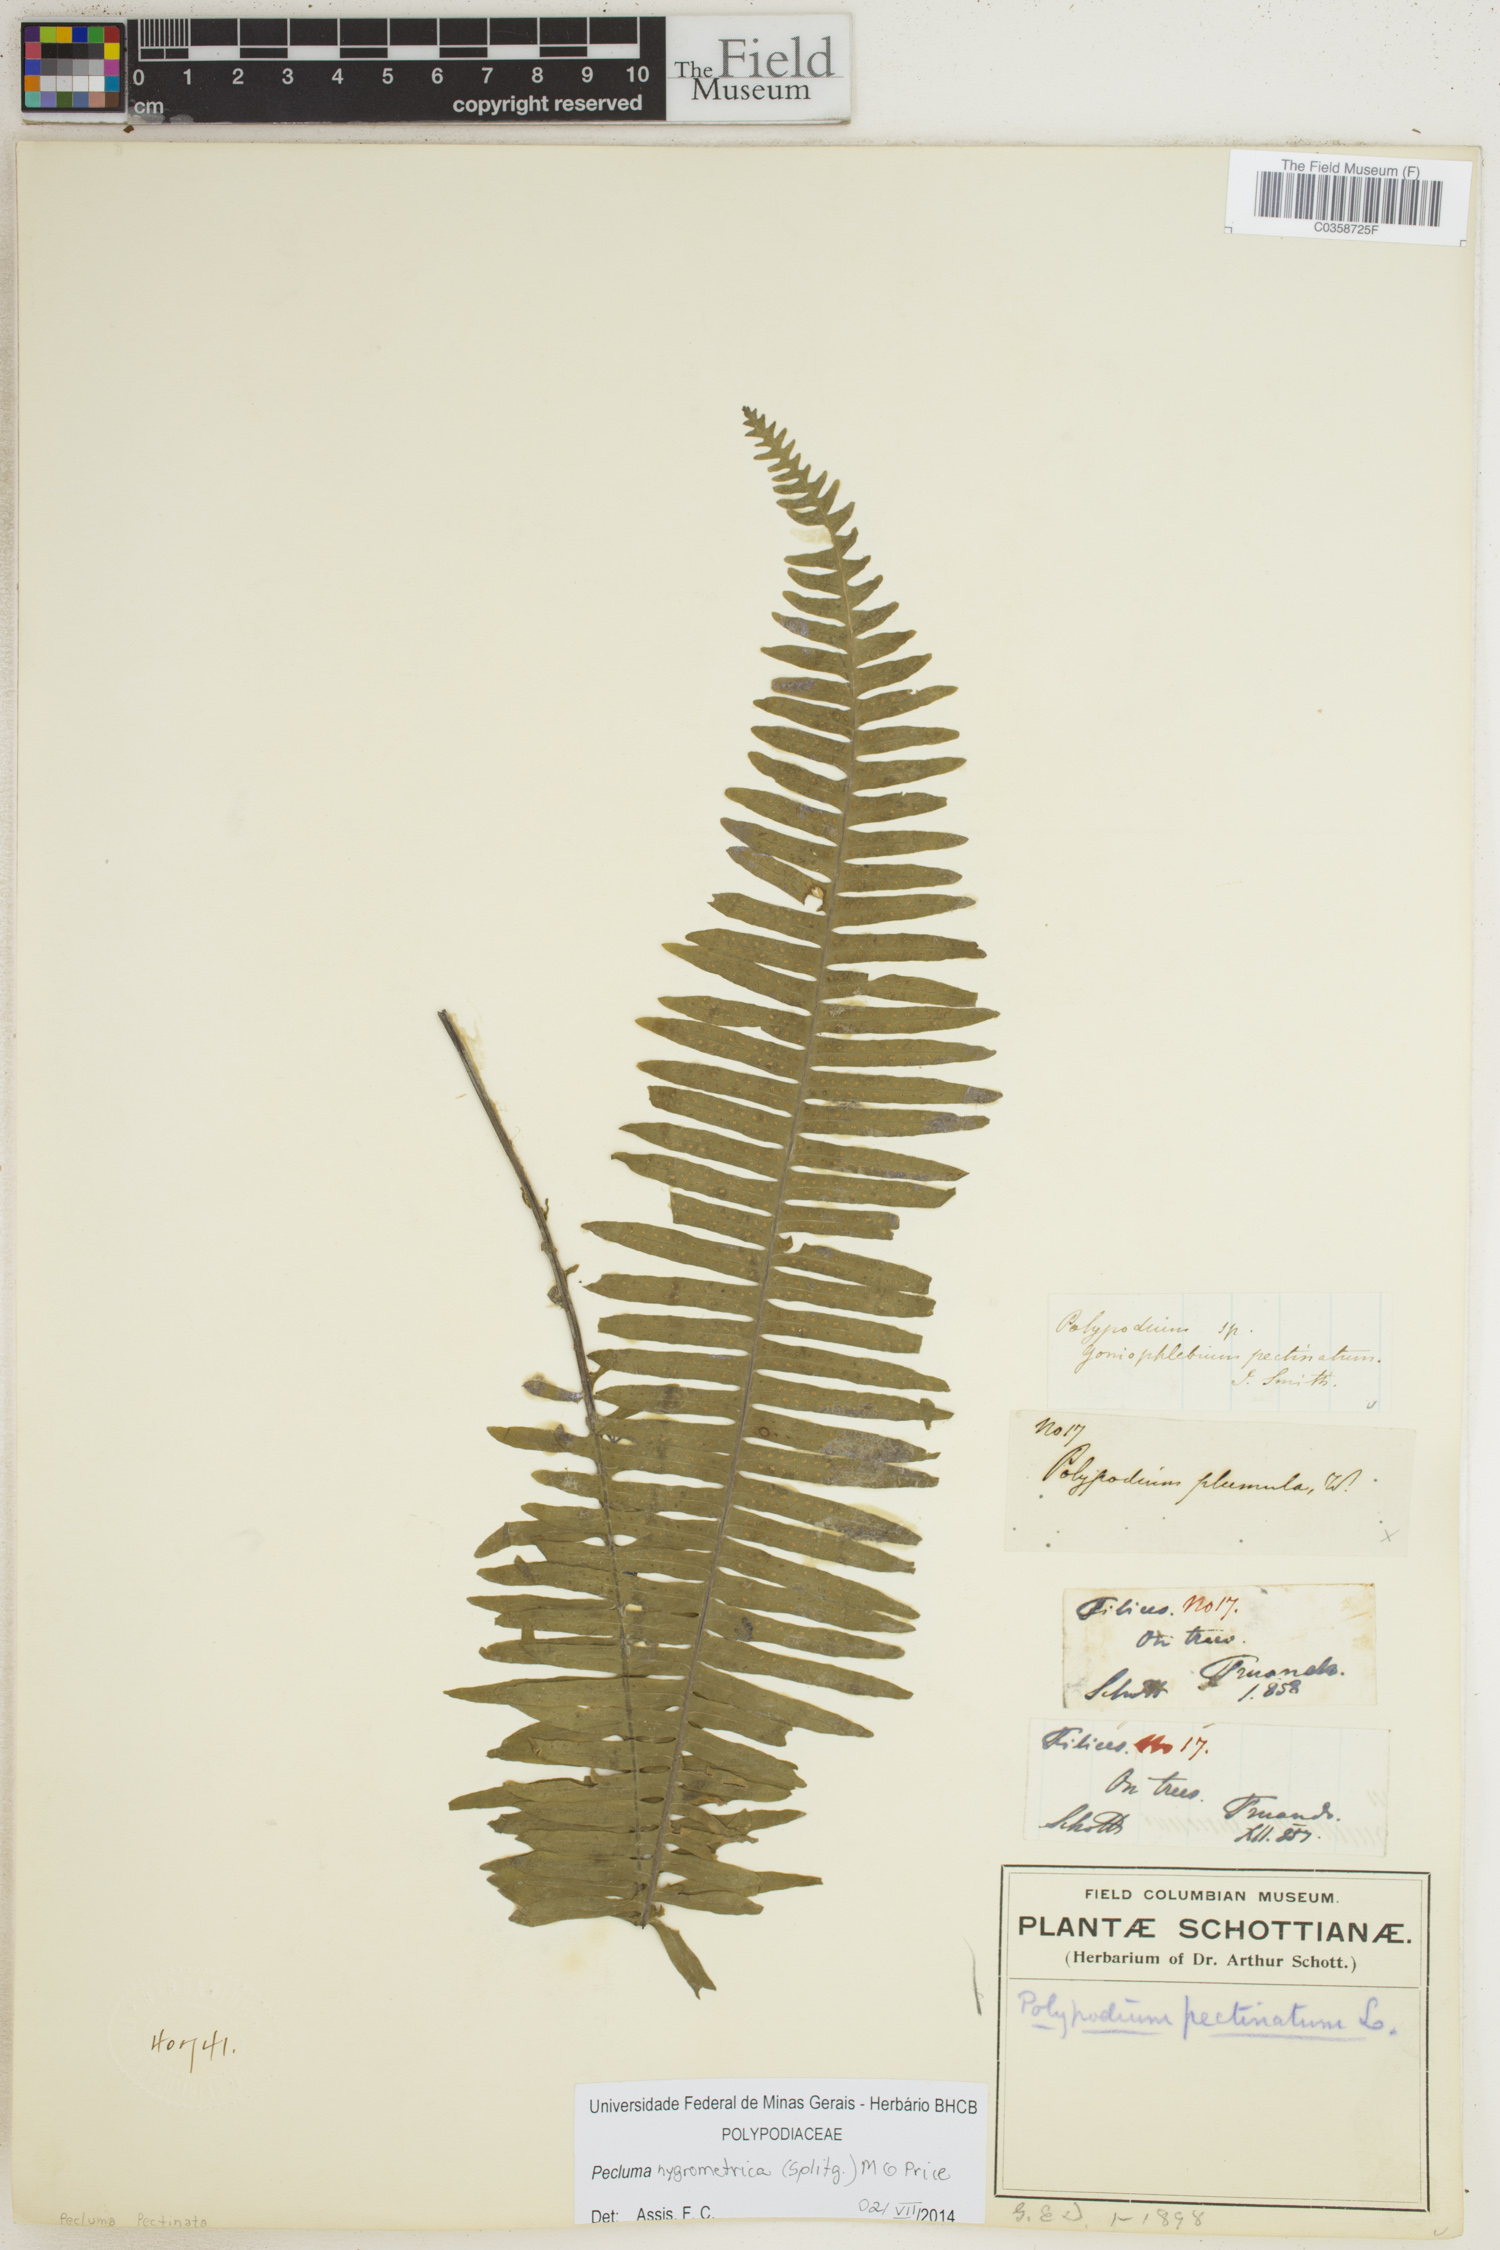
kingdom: Plantae
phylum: Tracheophyta
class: Polypodiopsida
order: Polypodiales
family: Polypodiaceae
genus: Pecluma
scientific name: Pecluma hygrometrica
